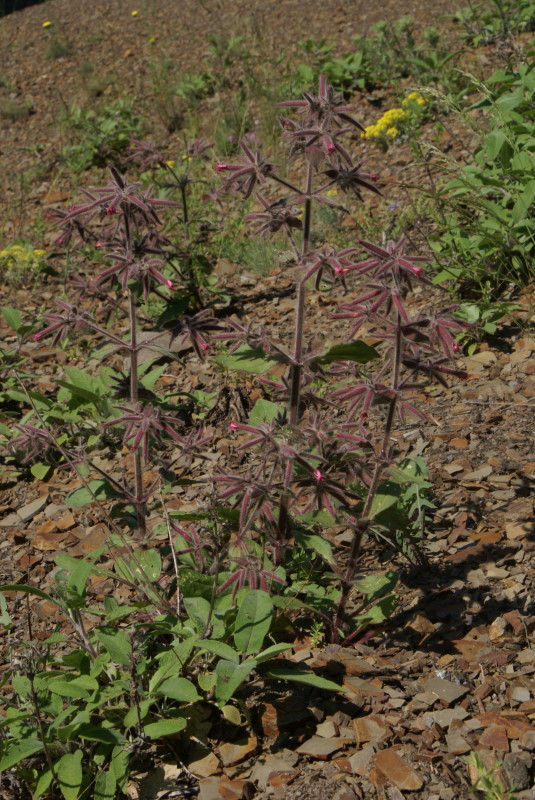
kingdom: Plantae
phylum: Tracheophyta
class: Magnoliopsida
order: Caryophyllales
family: Caryophyllaceae
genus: Saponaria
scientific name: Saponaria glutinosa
